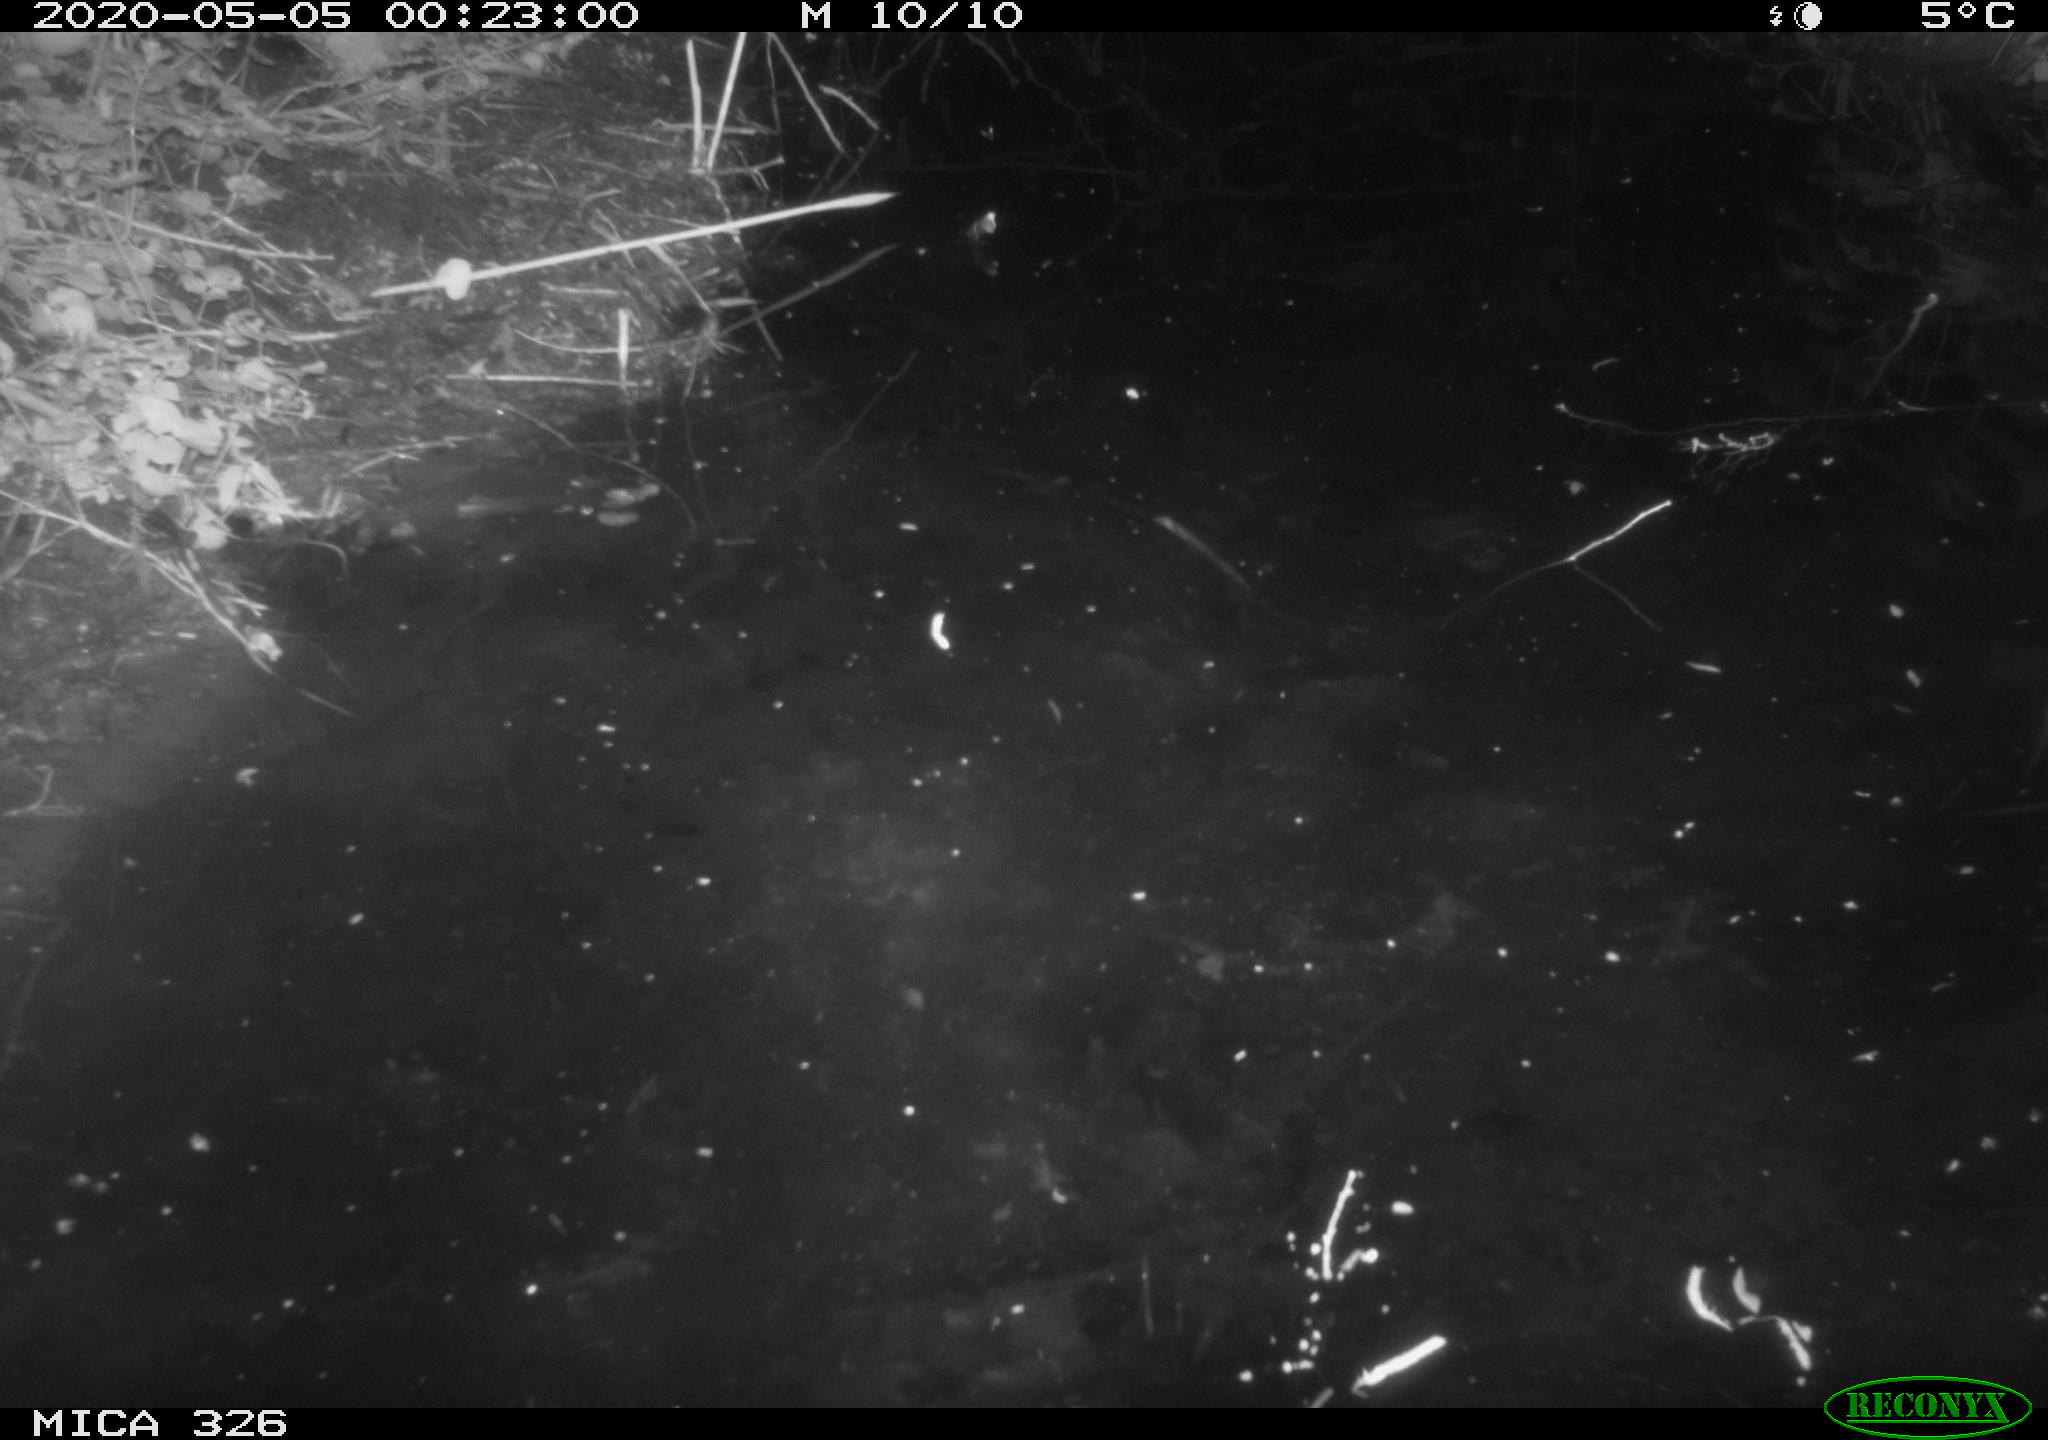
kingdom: Animalia
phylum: Chordata
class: Mammalia
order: Rodentia
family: Myocastoridae
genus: Myocastor
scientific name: Myocastor coypus
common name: Coypu
